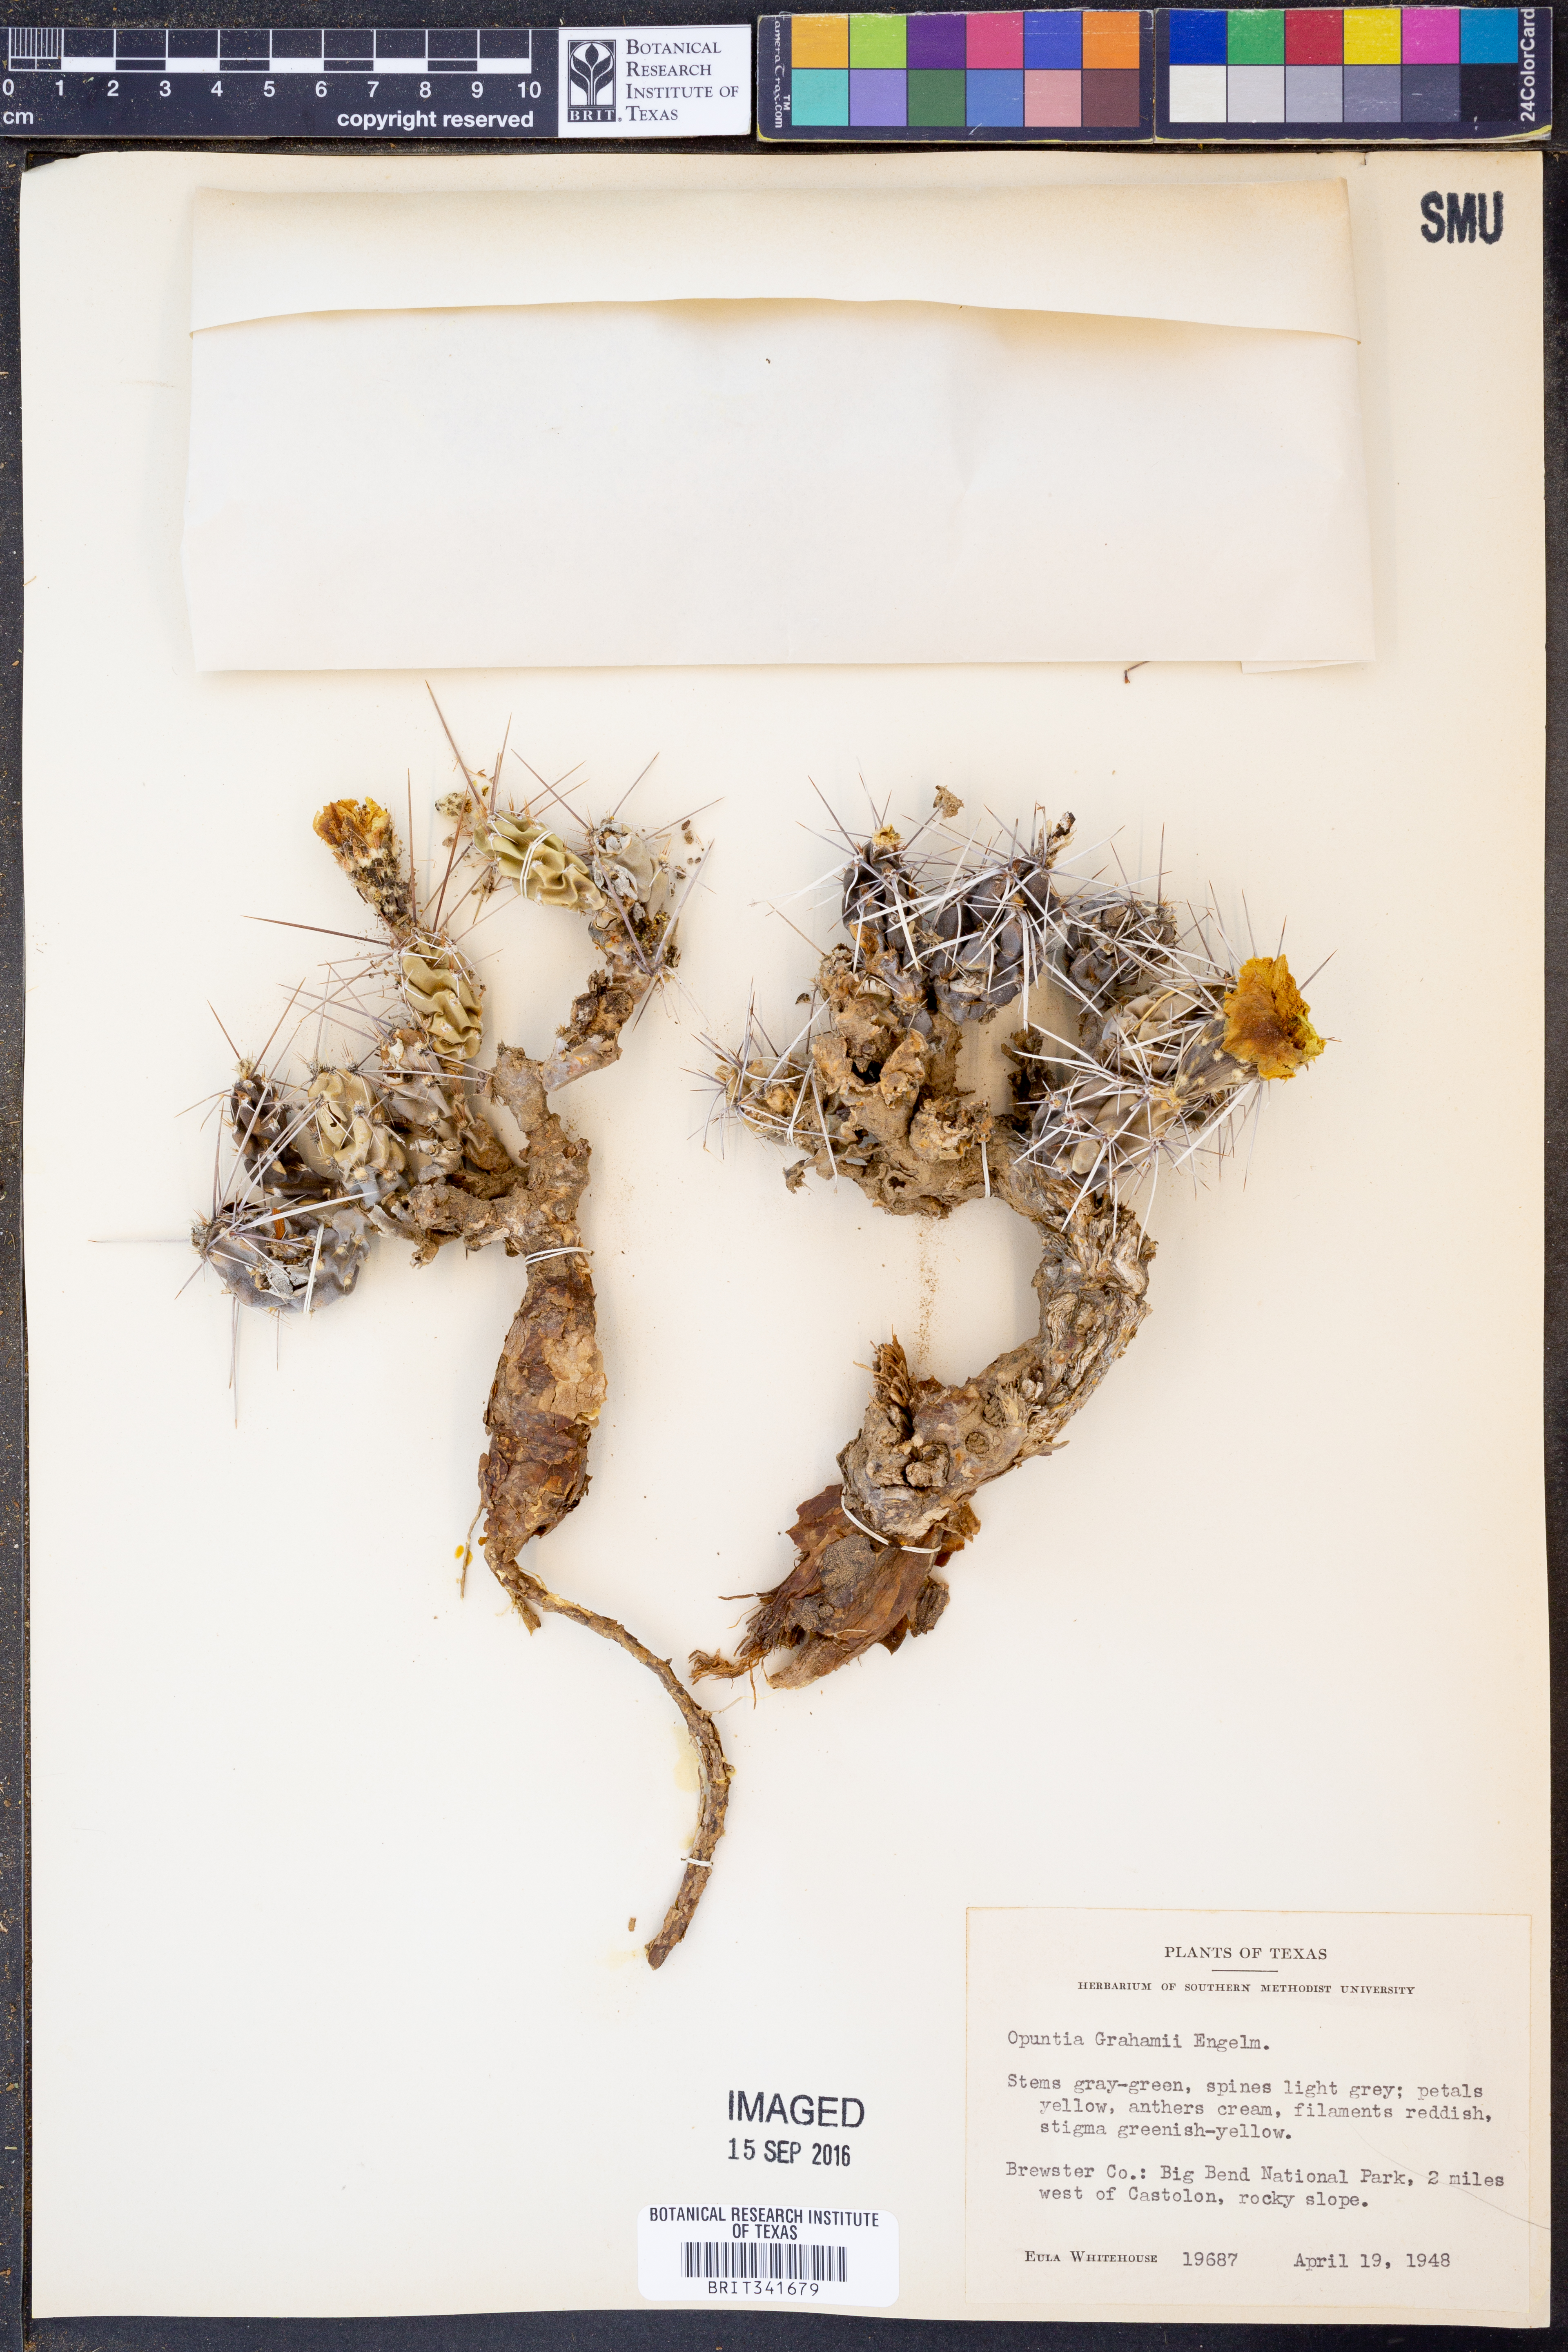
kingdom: Plantae
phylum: Tracheophyta
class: Magnoliopsida
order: Caryophyllales
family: Cactaceae
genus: Grusonia
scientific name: Grusonia aggeria
